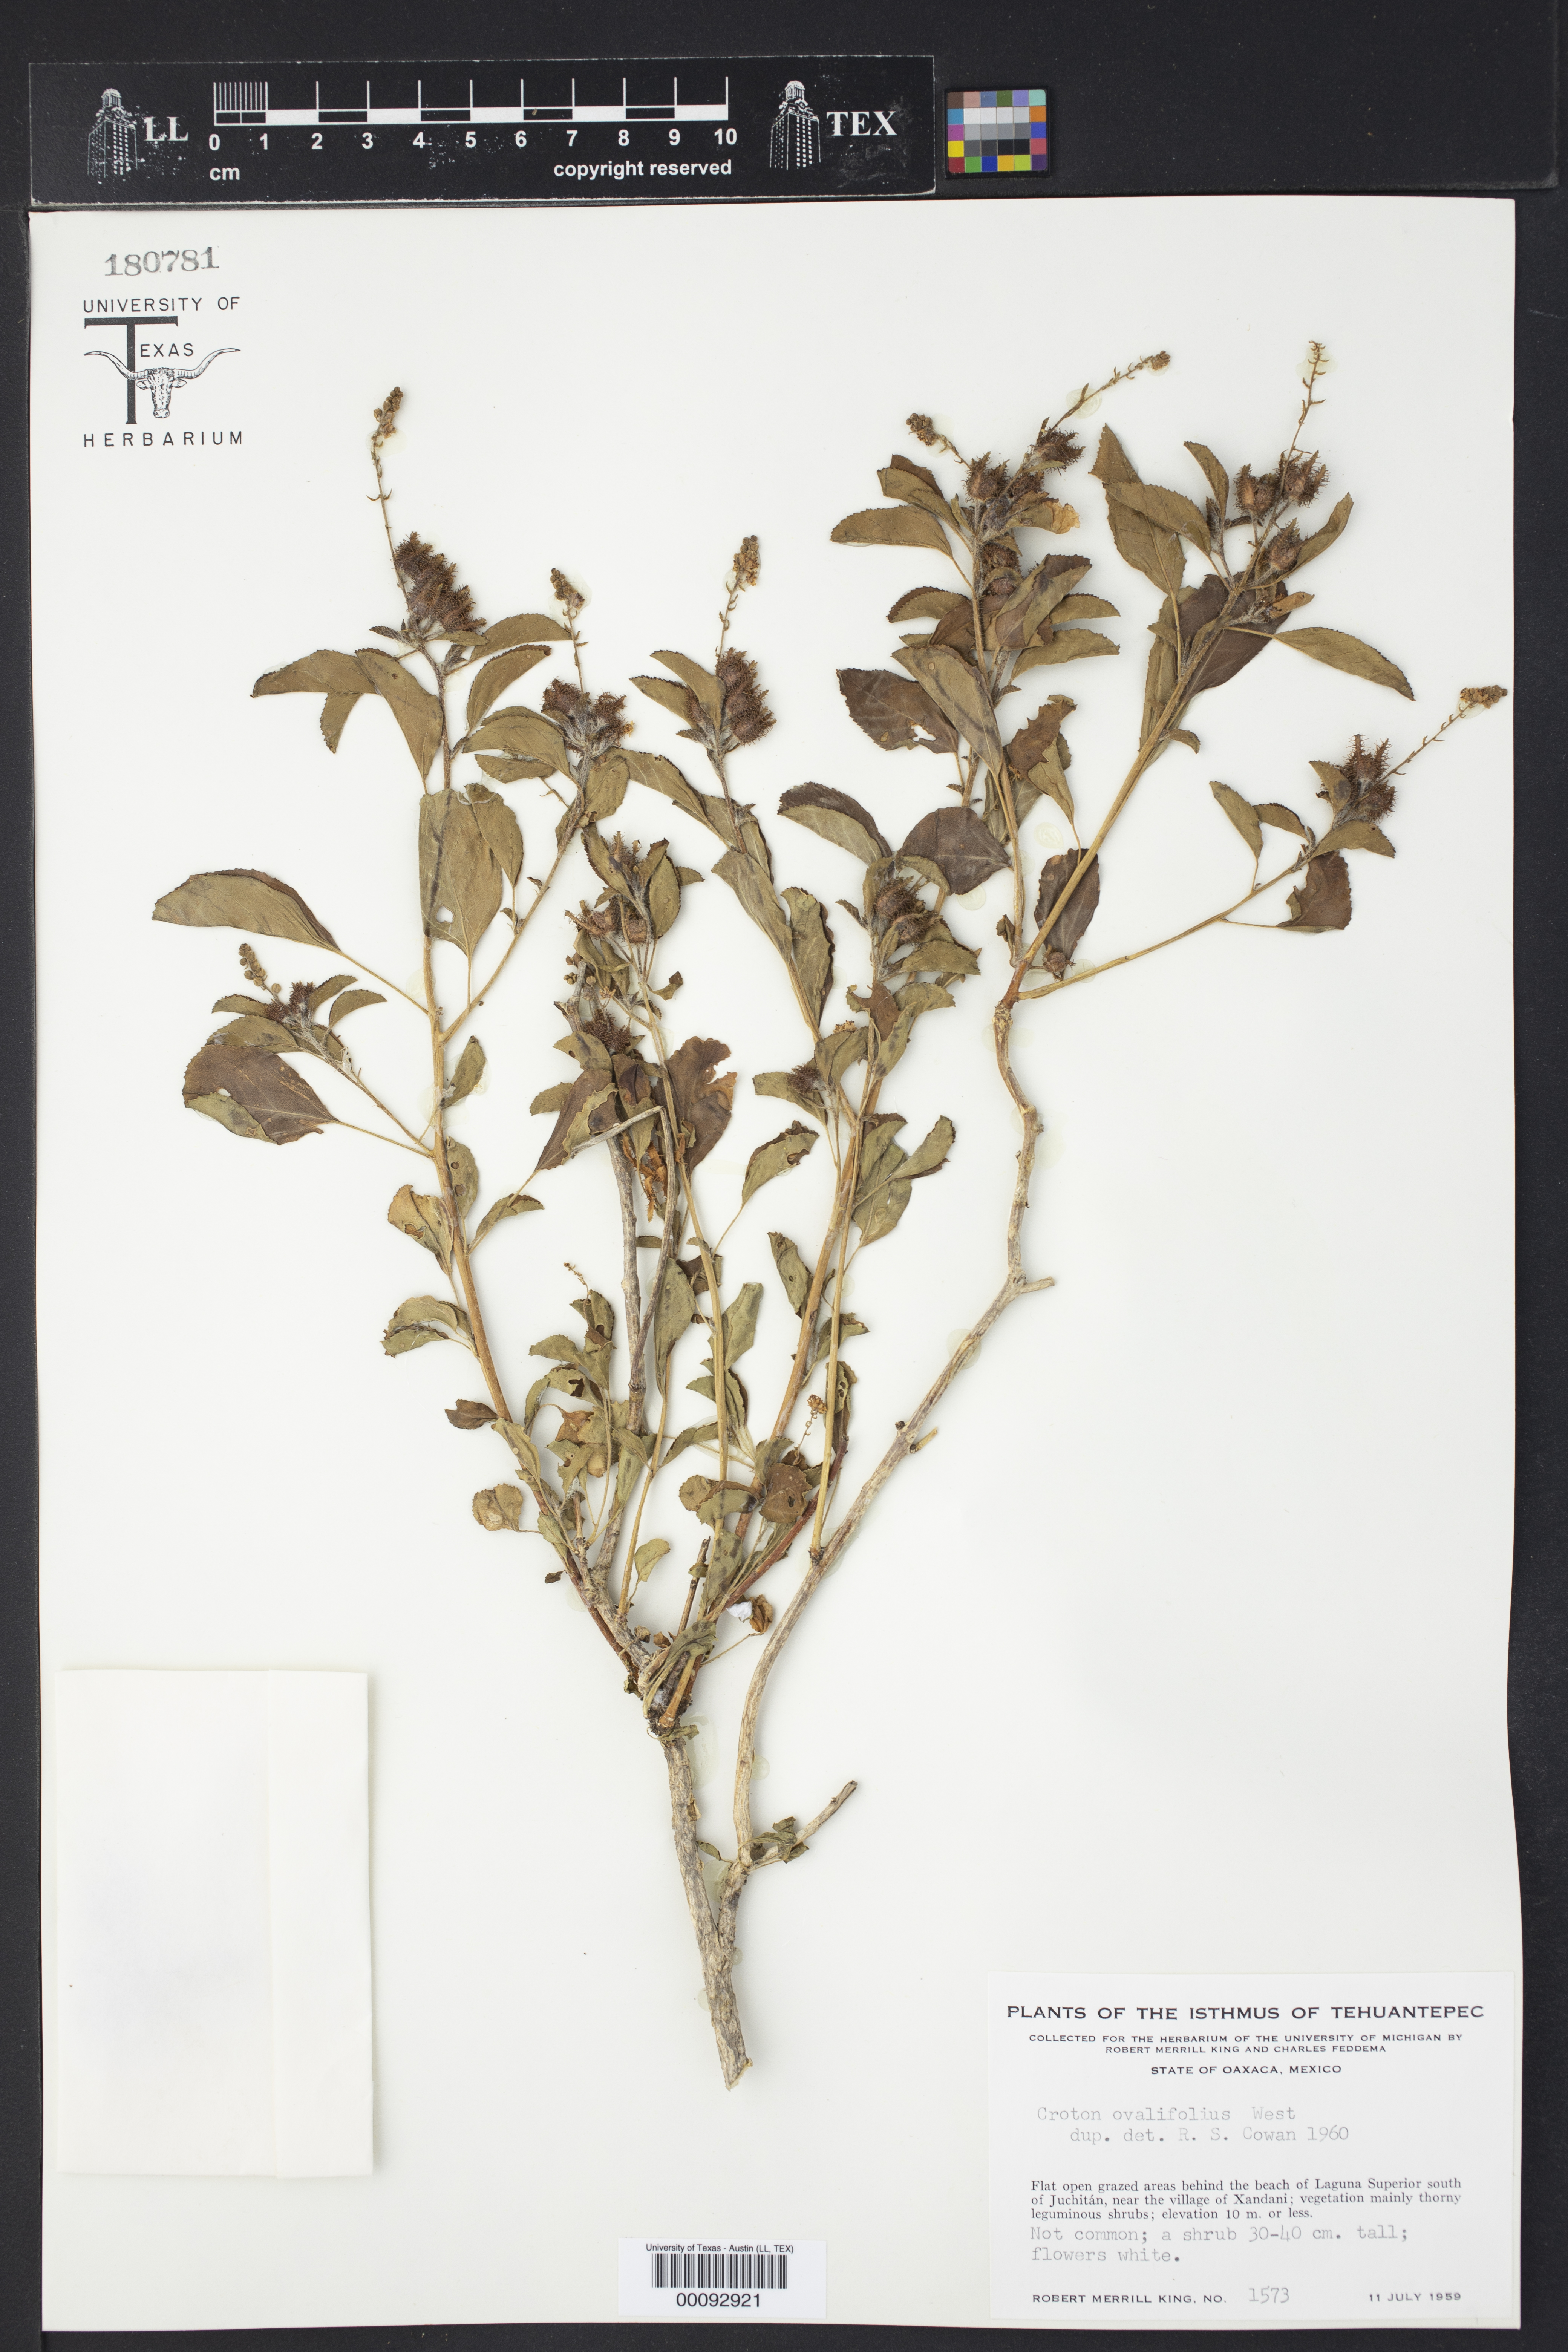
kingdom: Plantae
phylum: Tracheophyta
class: Magnoliopsida
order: Malpighiales
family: Euphorbiaceae
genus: Croton
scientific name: Croton ovalifolius
